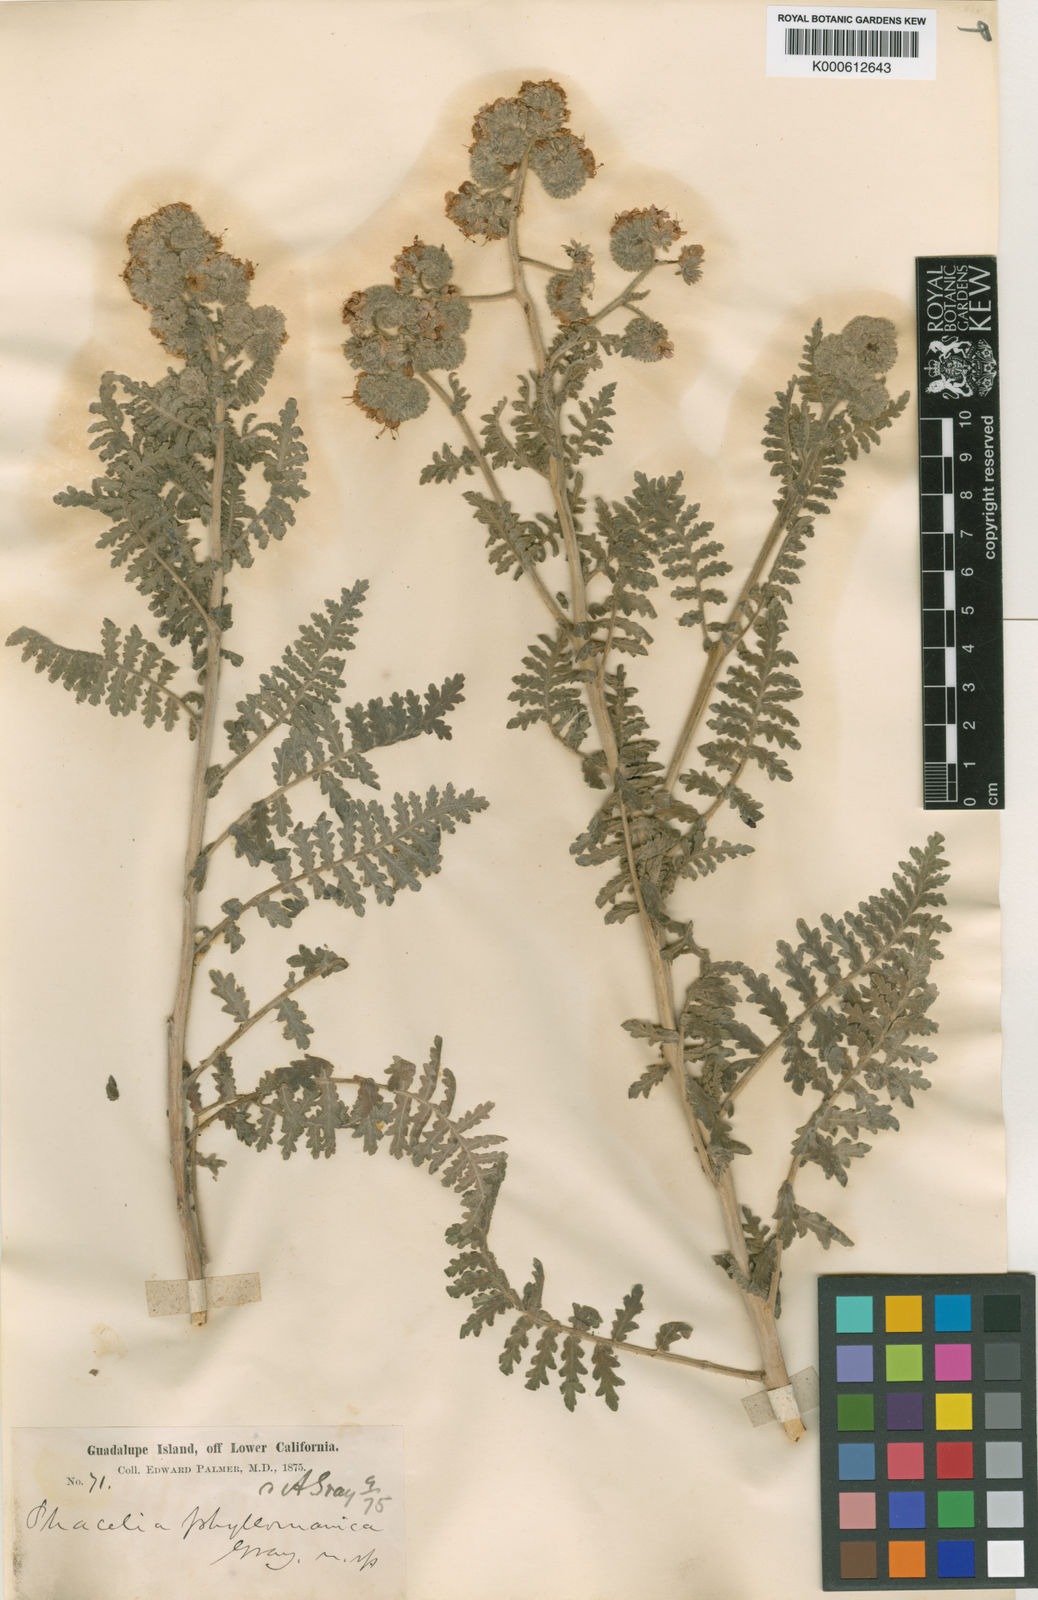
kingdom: Plantae
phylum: Tracheophyta
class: Magnoliopsida
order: Boraginales
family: Hydrophyllaceae
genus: Phacelia
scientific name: Phacelia phyllomanica
